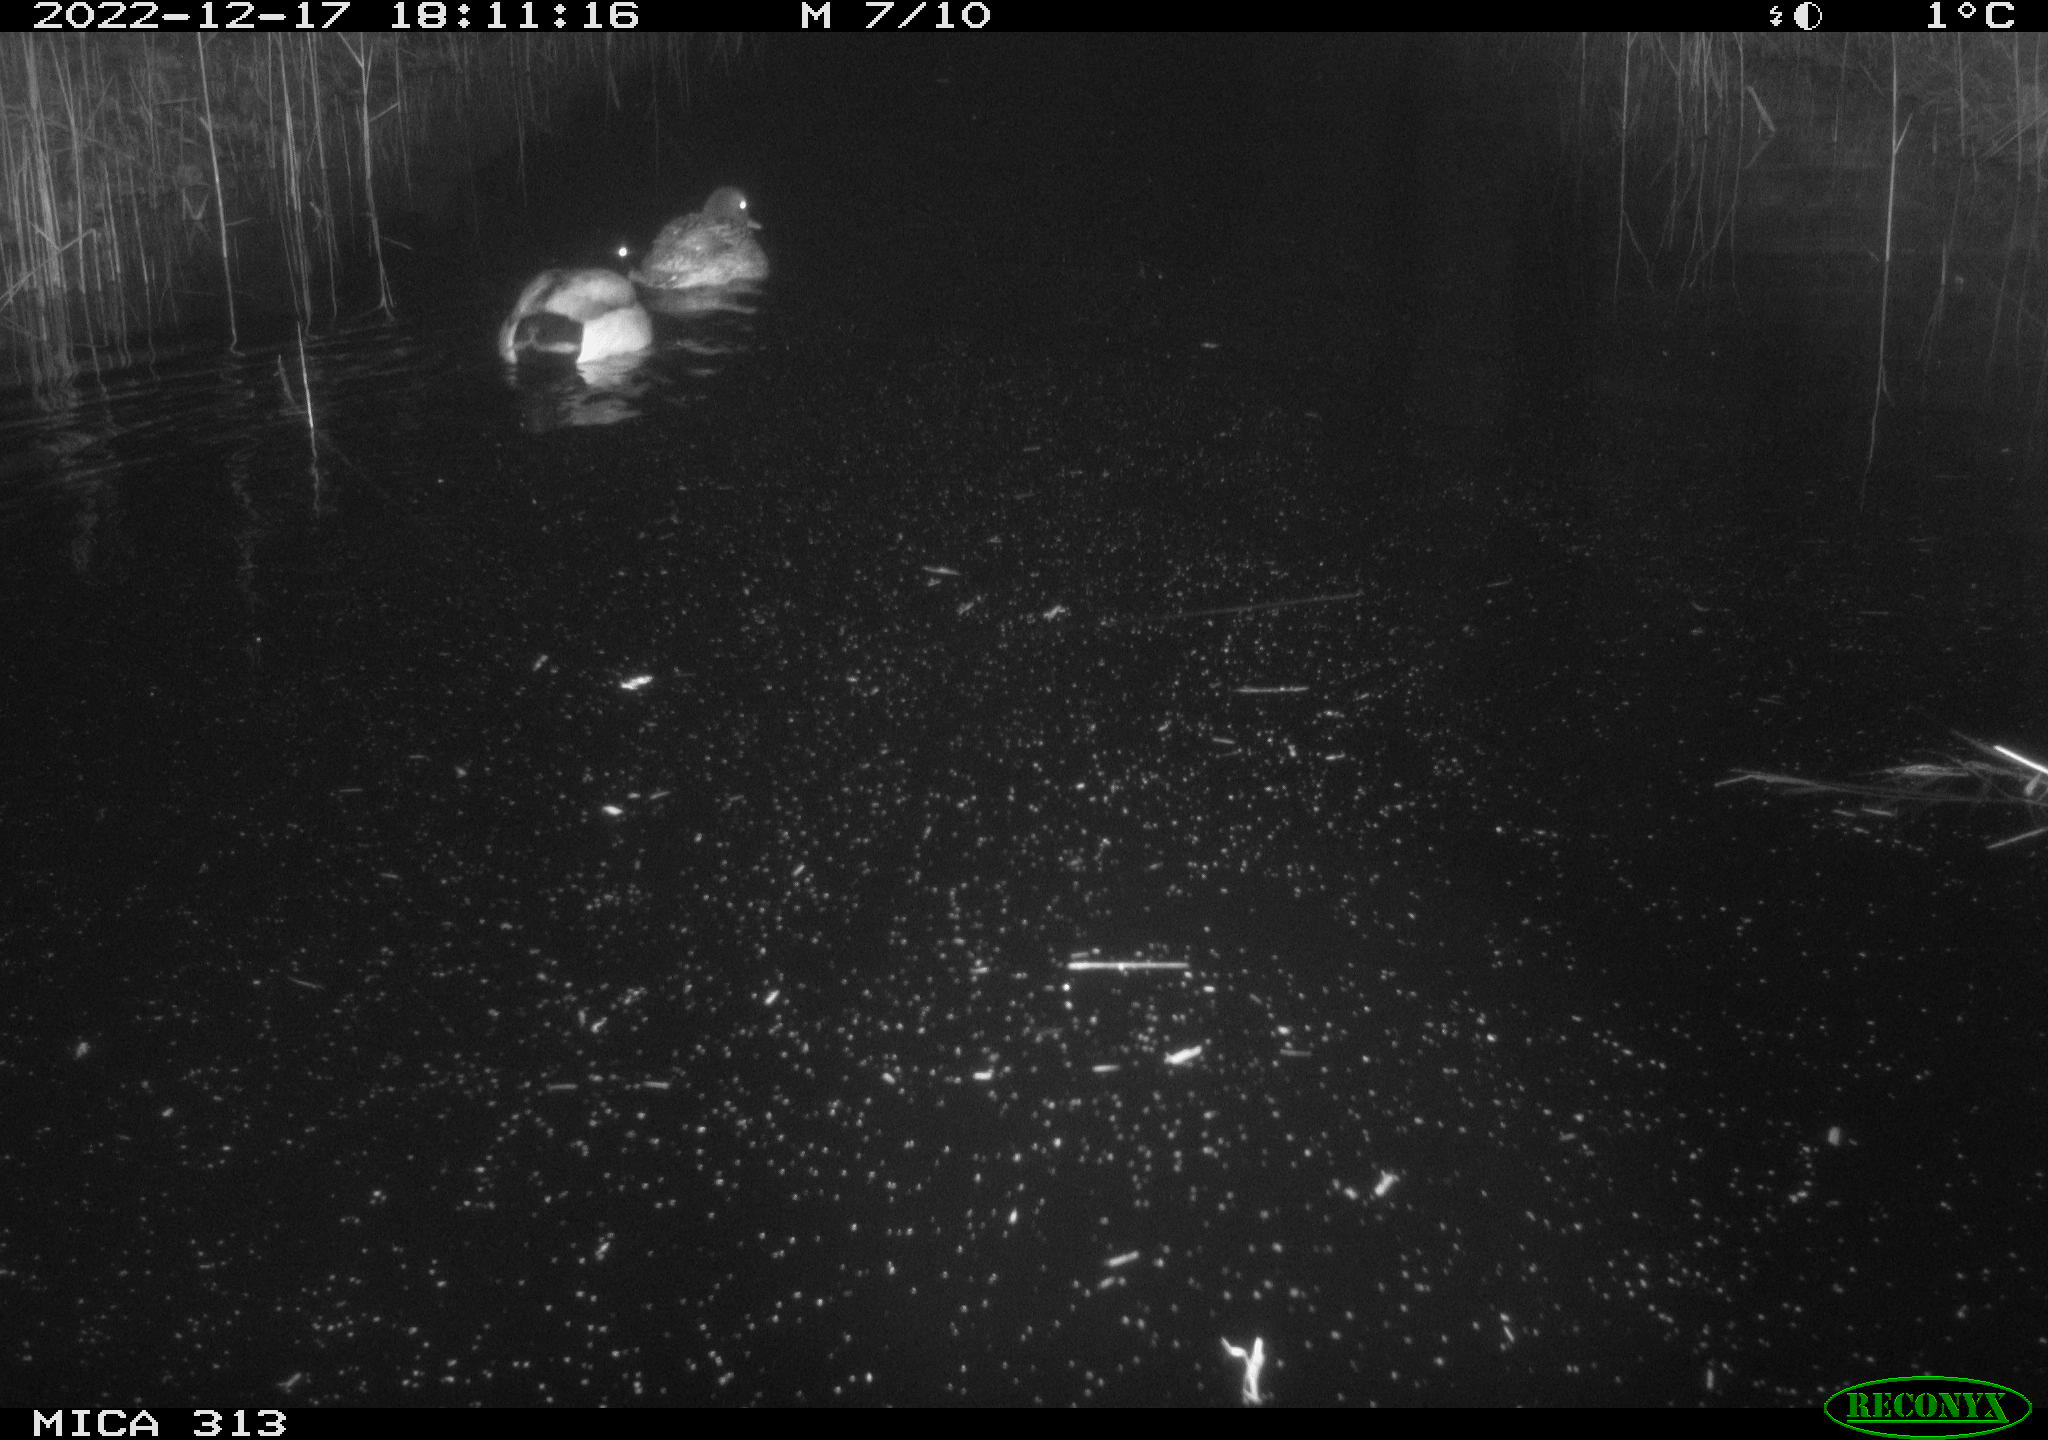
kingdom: Animalia
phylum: Chordata
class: Aves
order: Anseriformes
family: Anatidae
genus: Anas
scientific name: Anas
